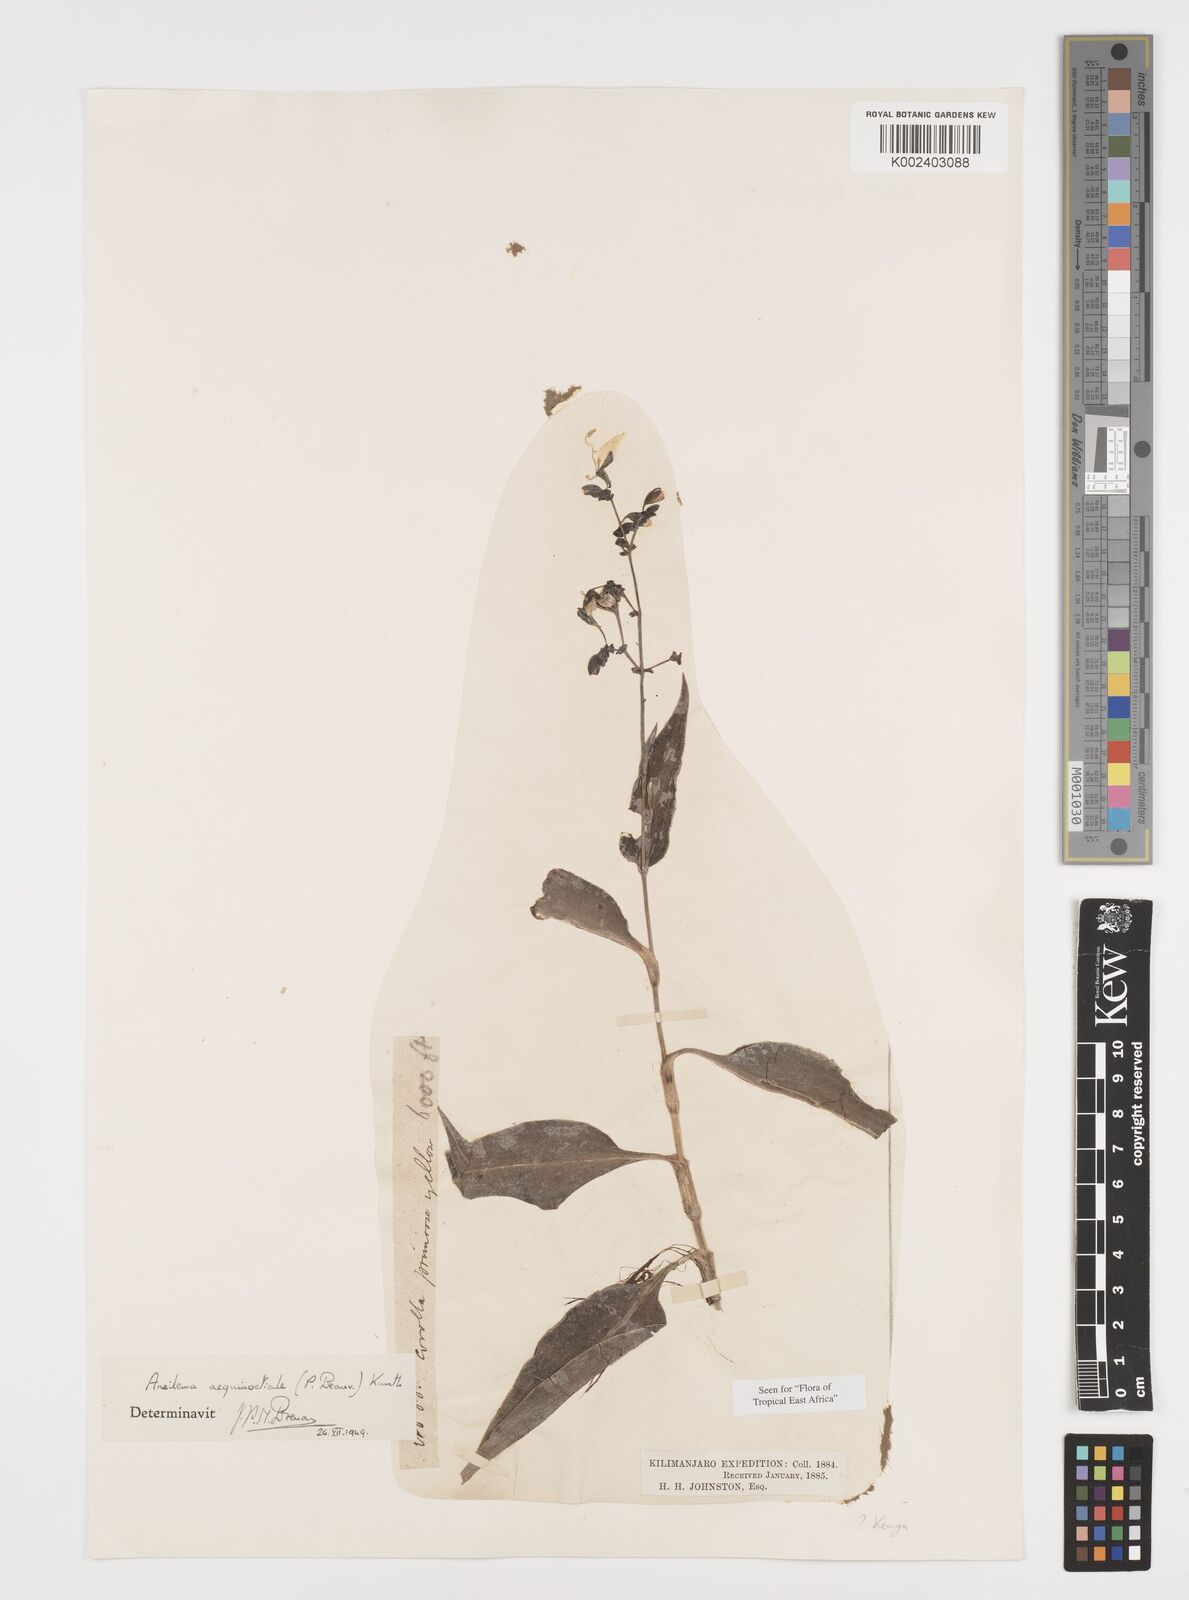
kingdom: Plantae
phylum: Tracheophyta
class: Liliopsida
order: Commelinales
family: Commelinaceae
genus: Aneilema
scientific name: Aneilema aequinoctiale
